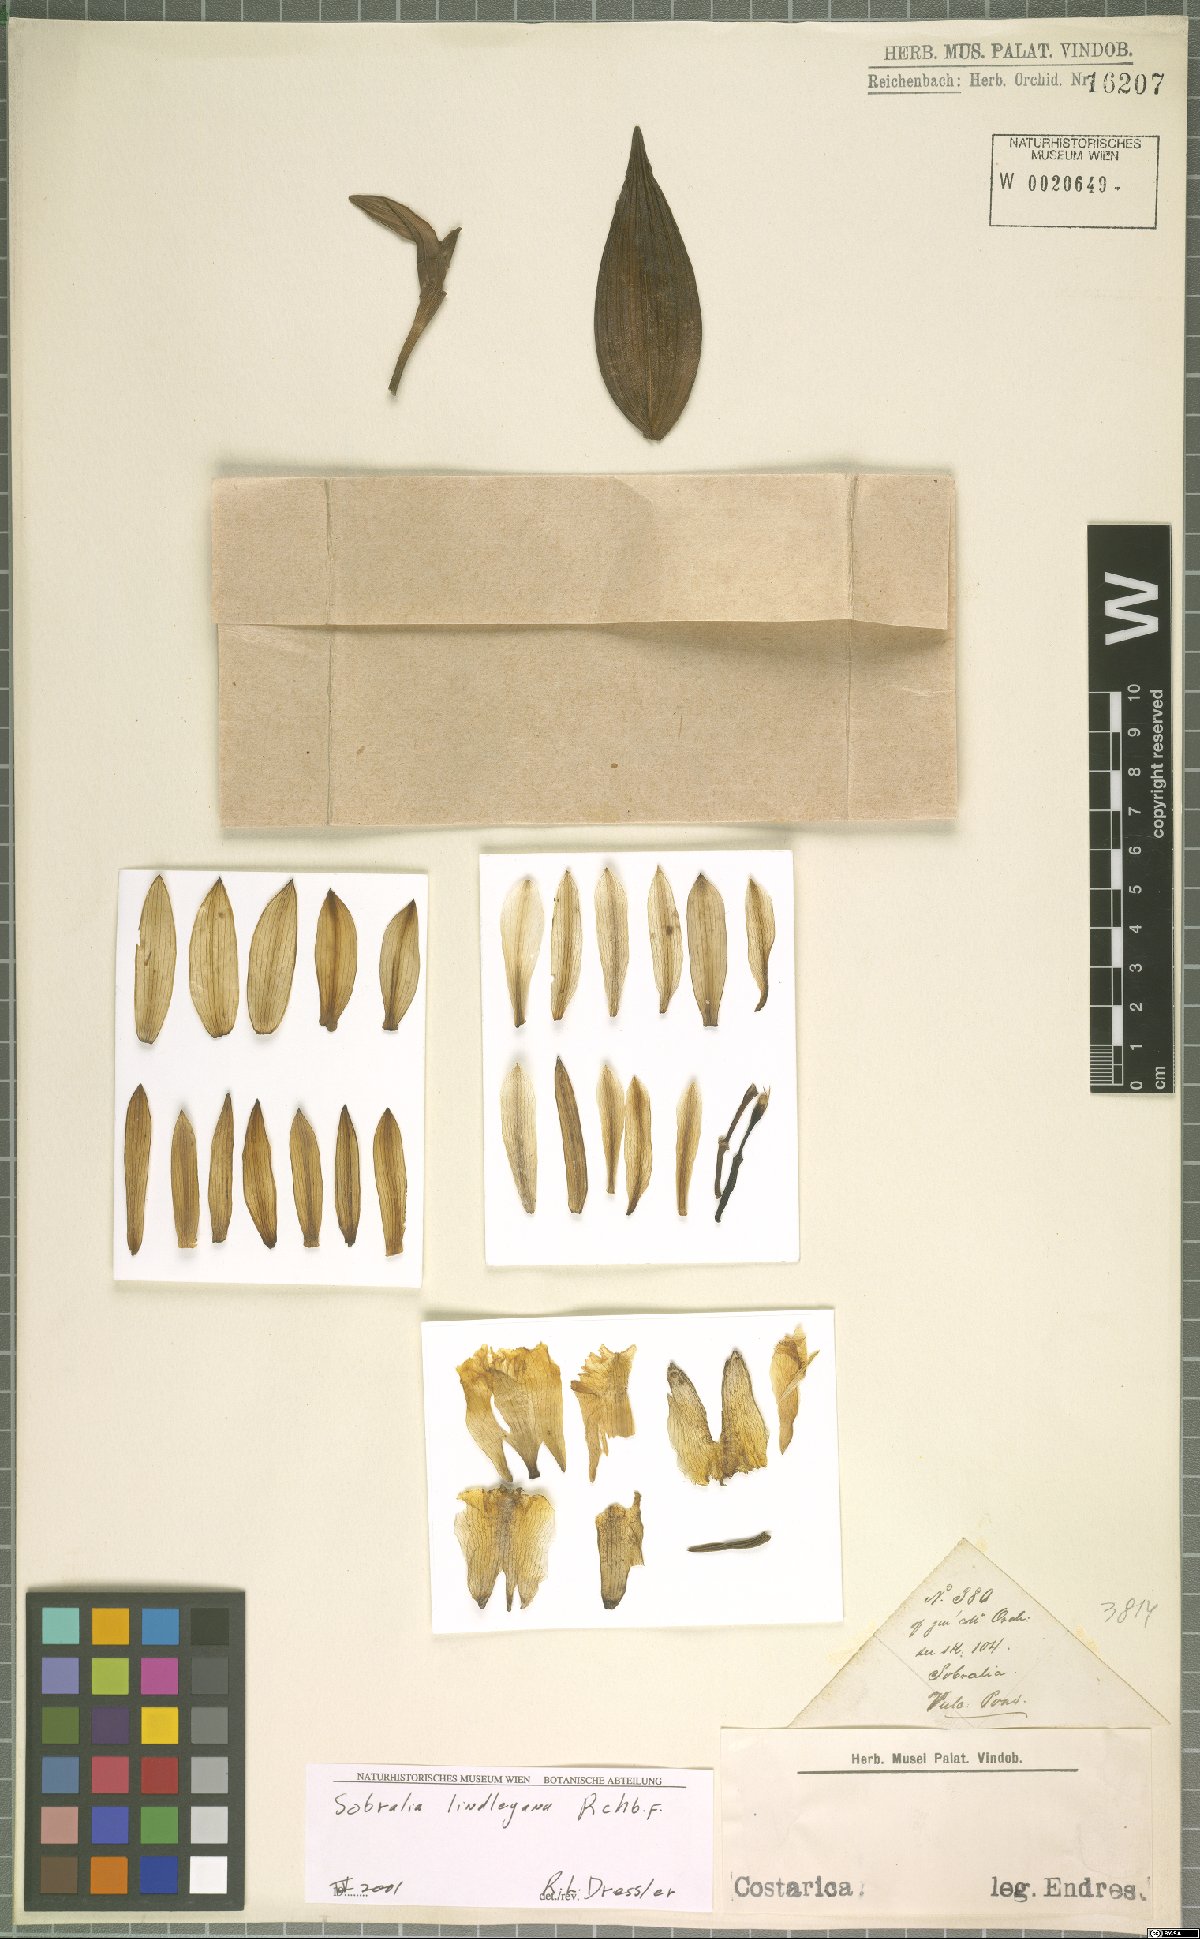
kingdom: Plantae
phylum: Tracheophyta
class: Liliopsida
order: Asparagales
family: Orchidaceae
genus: Sobralia
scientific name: Sobralia lindleyana
